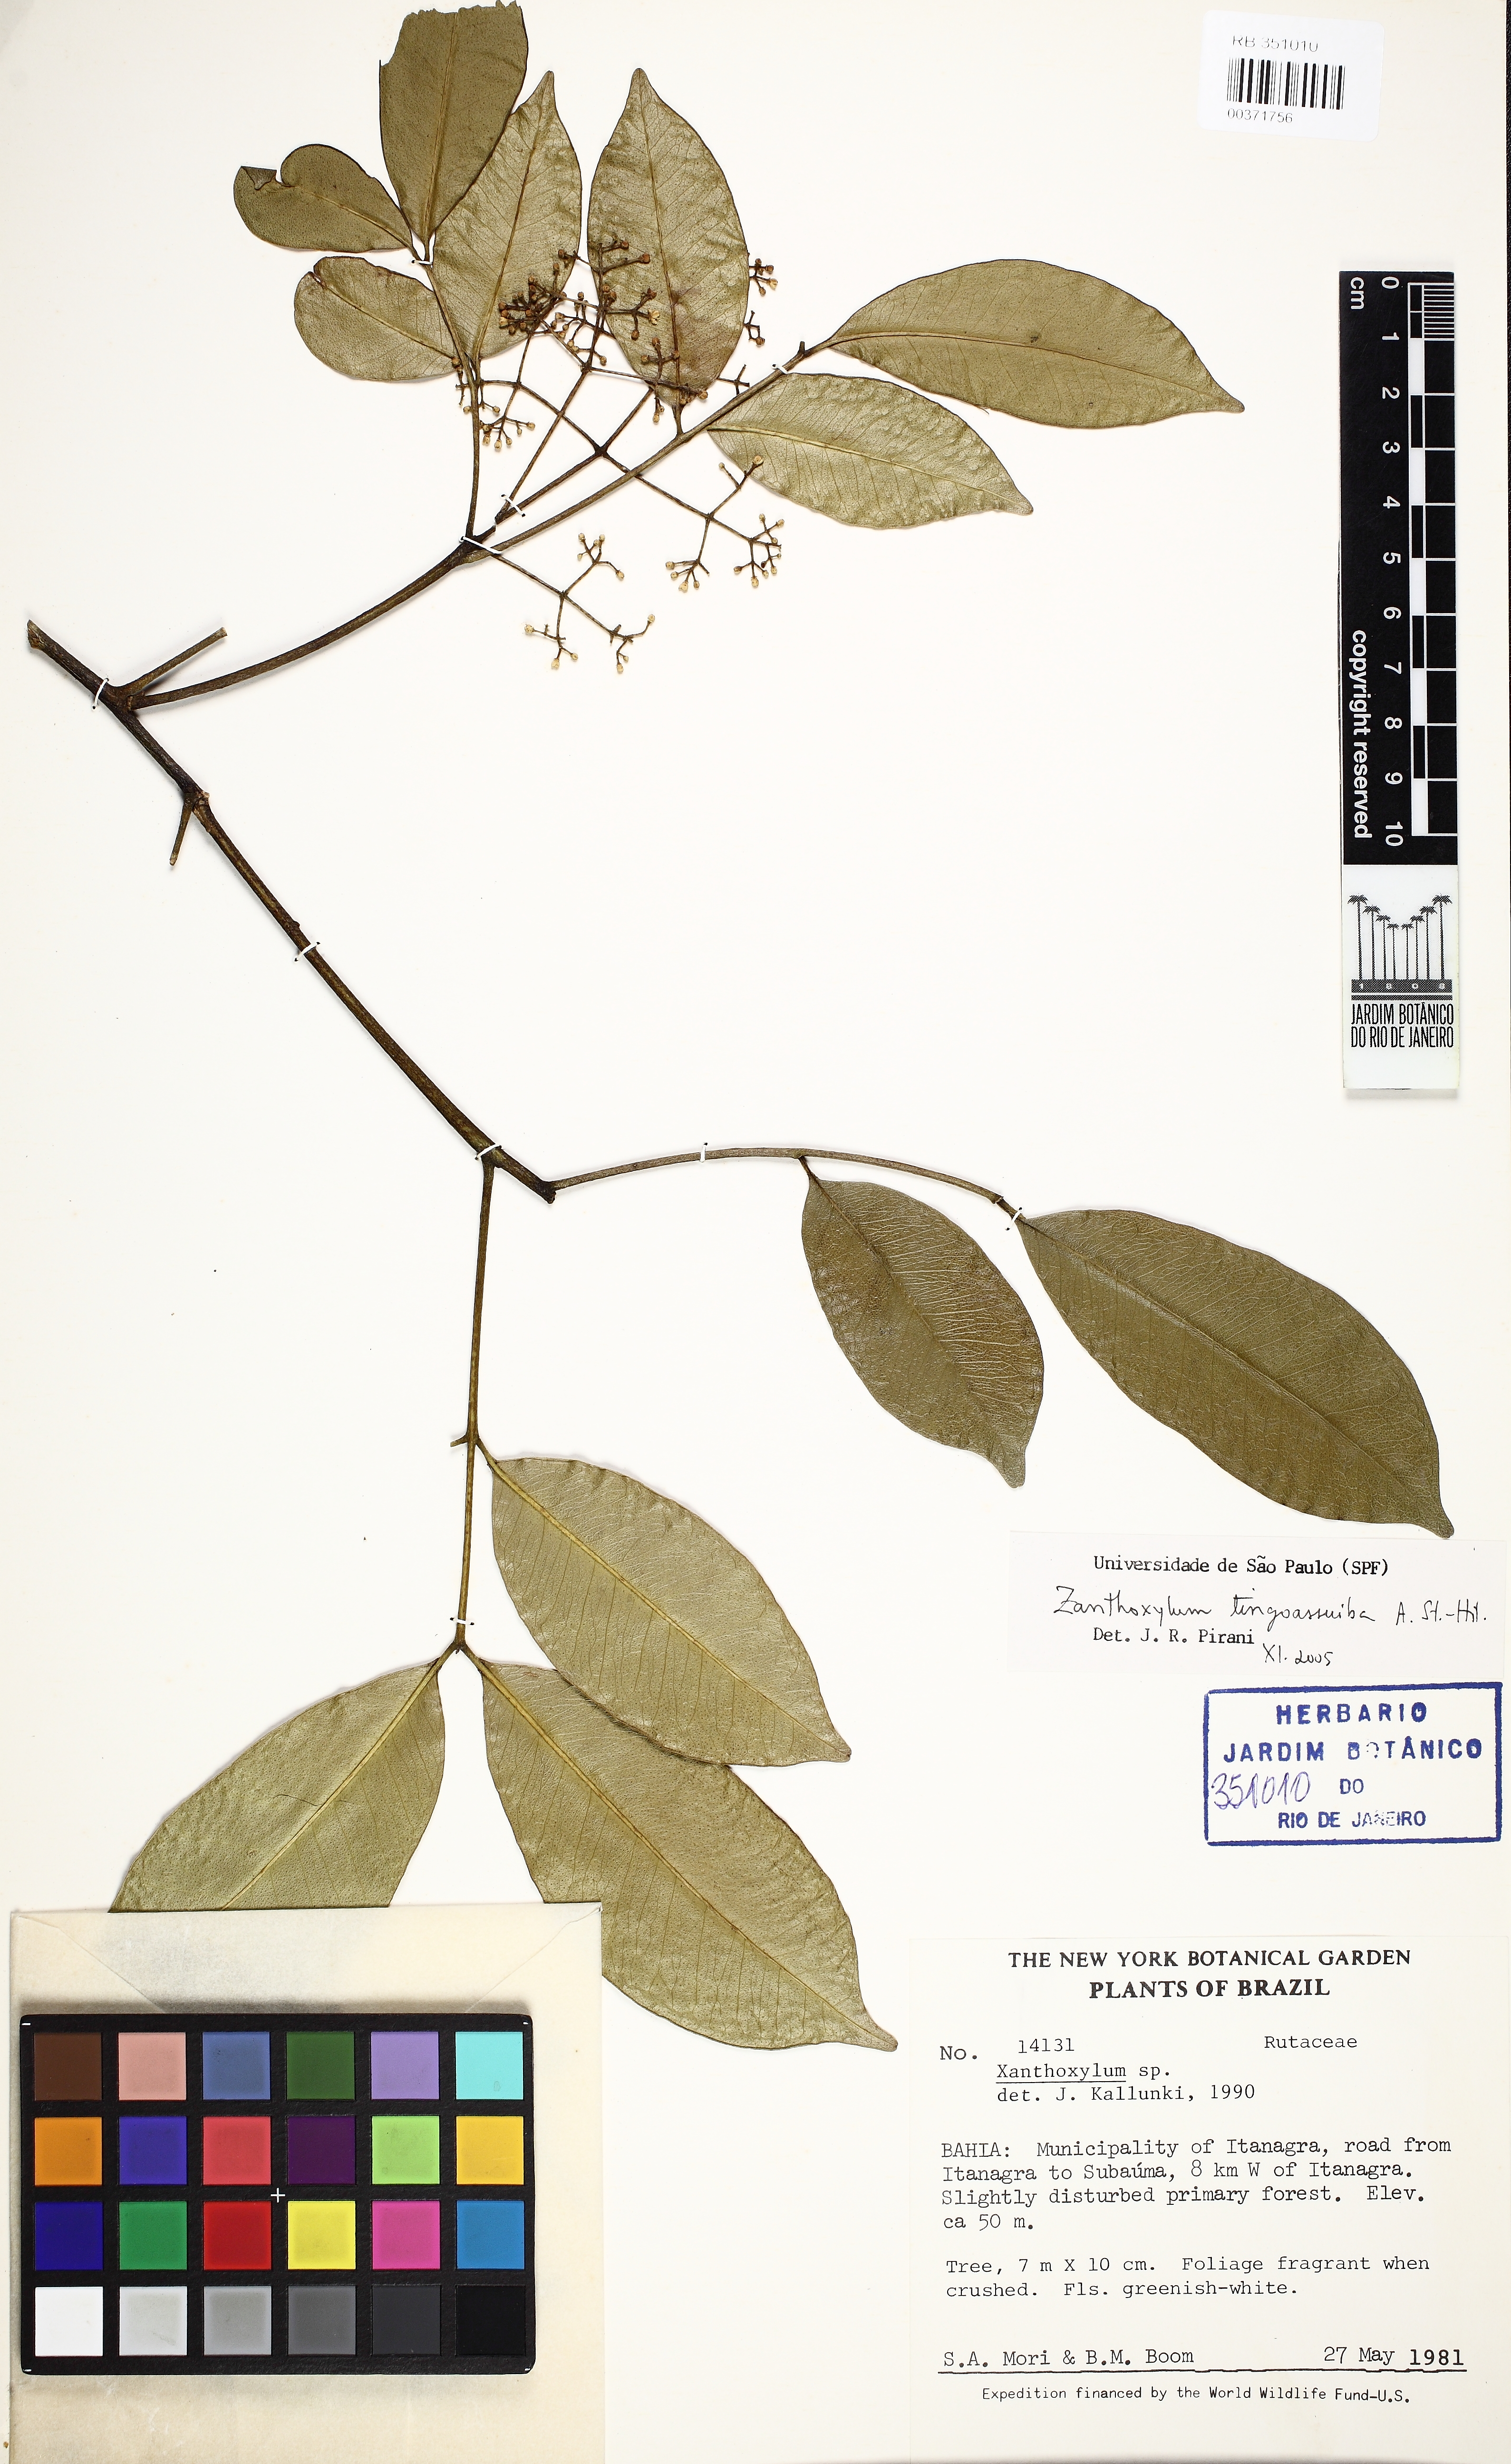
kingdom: Plantae
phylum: Tracheophyta
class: Magnoliopsida
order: Sapindales
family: Rutaceae
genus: Zanthoxylum
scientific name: Zanthoxylum tingoassuiba
